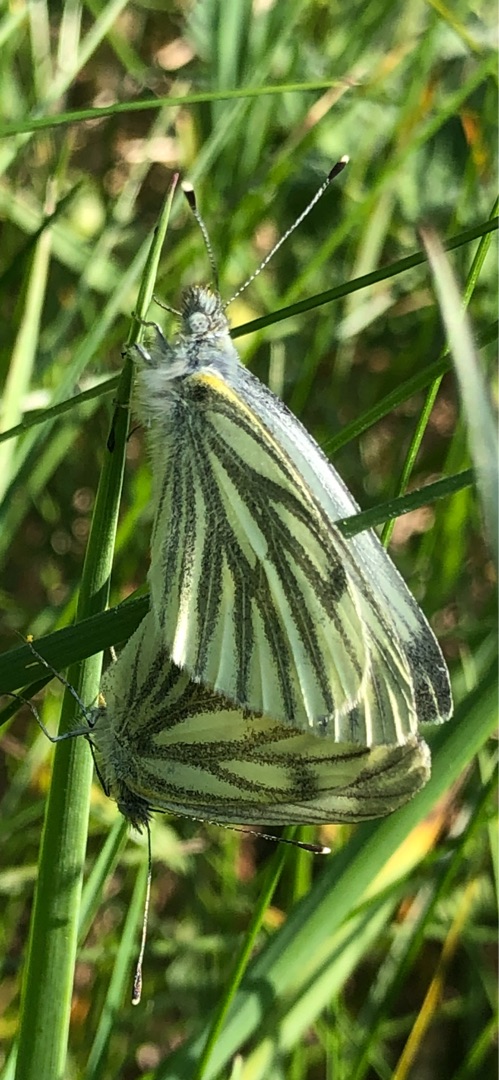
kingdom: Animalia
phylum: Arthropoda
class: Insecta
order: Lepidoptera
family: Pieridae
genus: Pieris
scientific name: Pieris napi
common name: Grønåret kålsommerfugl
